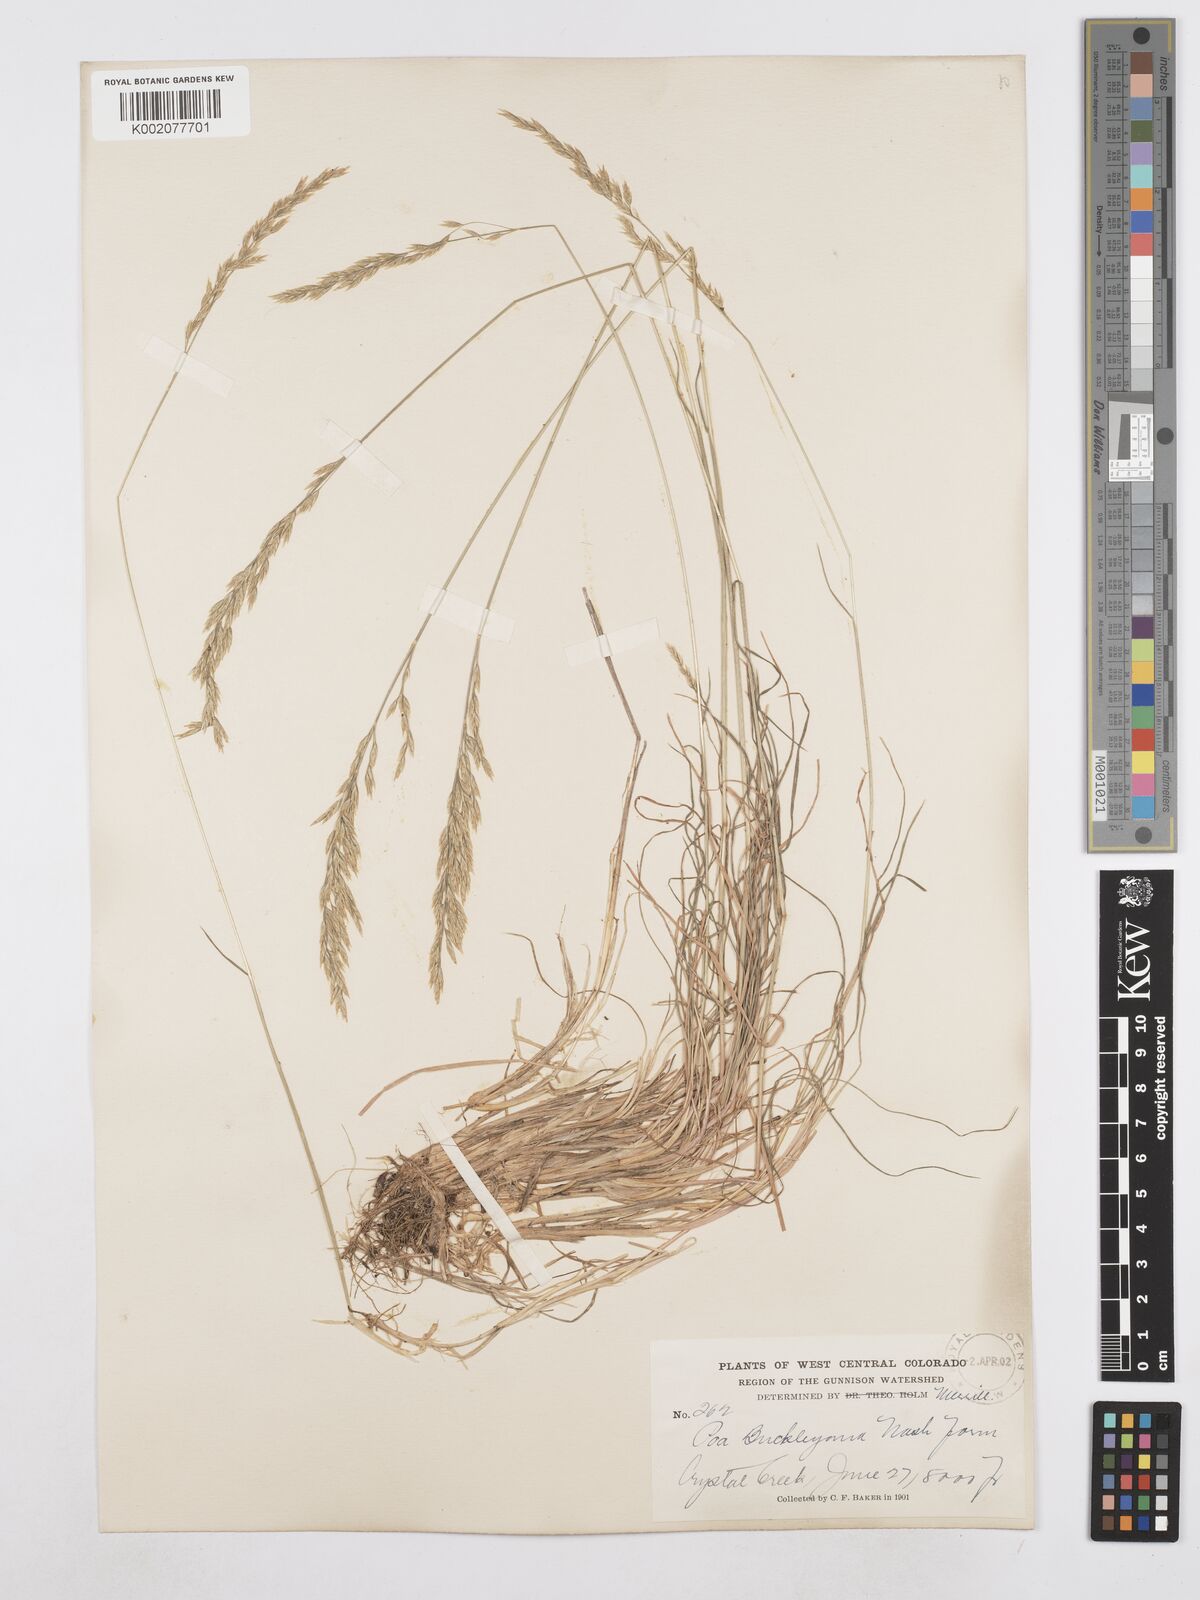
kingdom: Plantae
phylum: Tracheophyta
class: Liliopsida
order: Poales
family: Poaceae
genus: Poa
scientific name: Poa secunda
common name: Sandberg bluegrass
